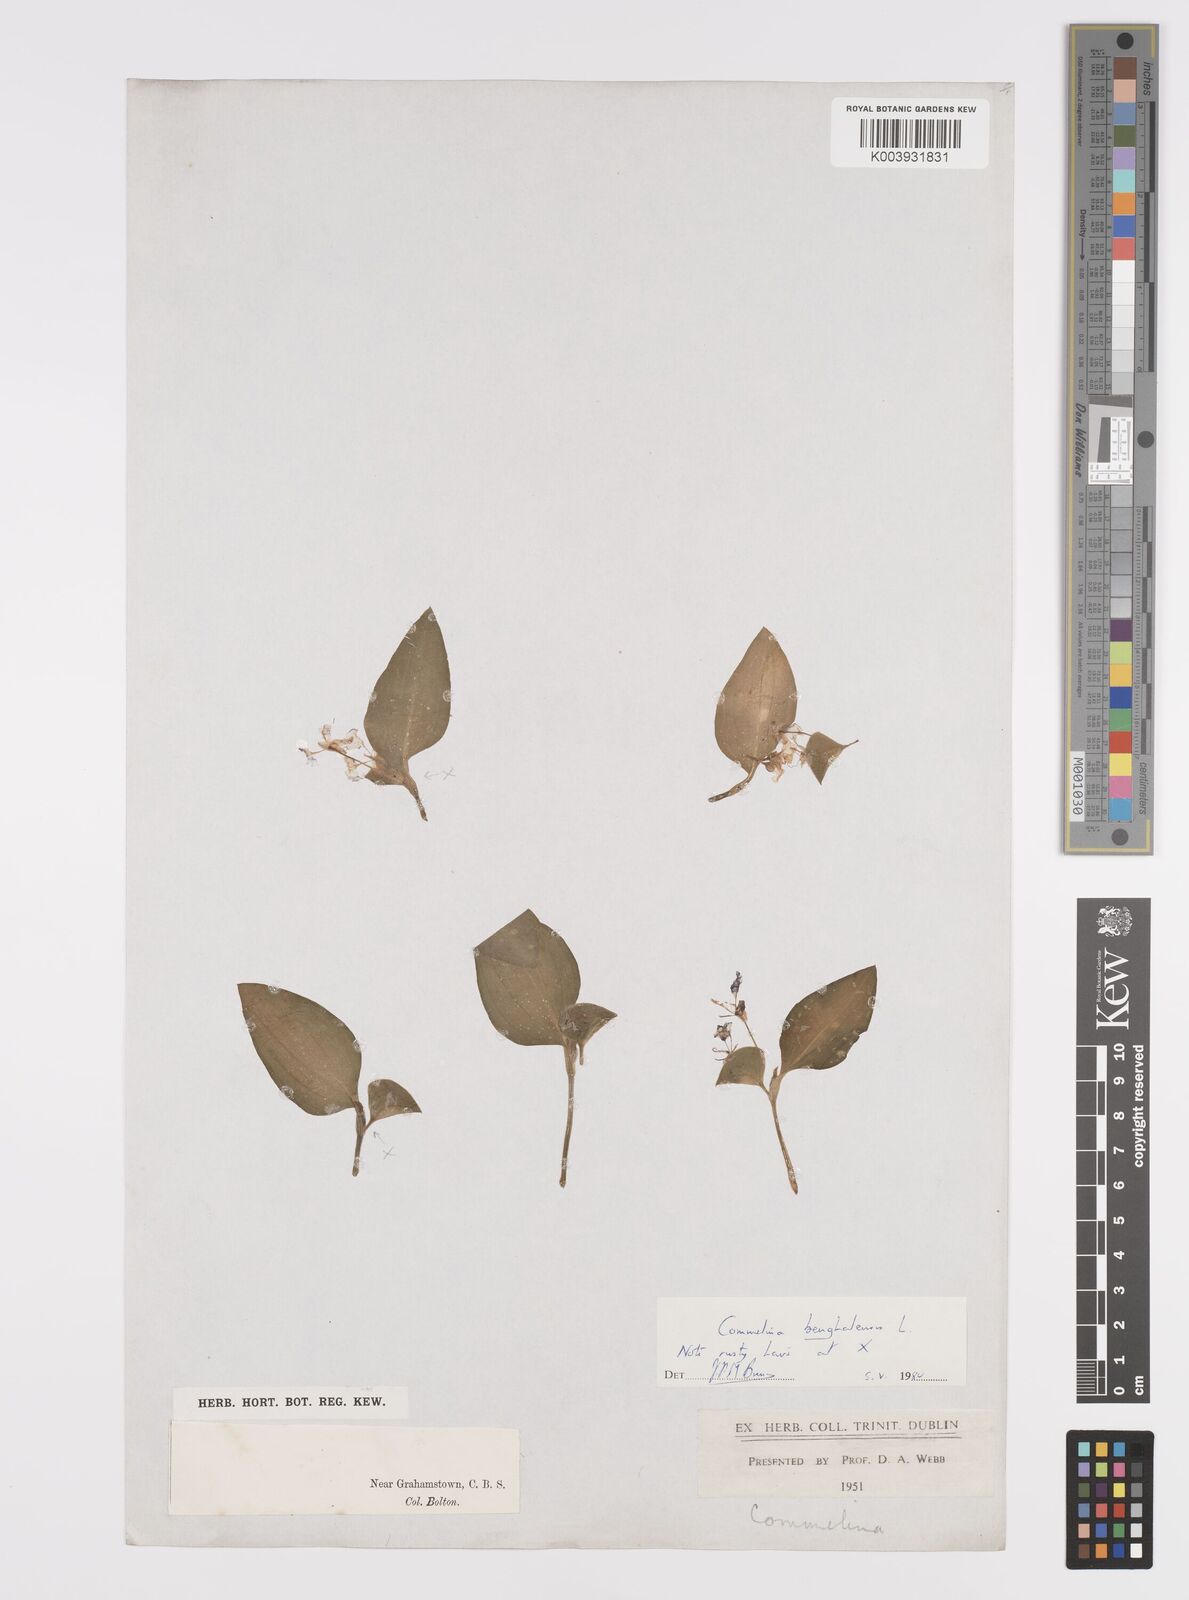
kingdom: Plantae
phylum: Tracheophyta
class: Liliopsida
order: Commelinales
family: Commelinaceae
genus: Commelina
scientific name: Commelina benghalensis
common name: Jio
